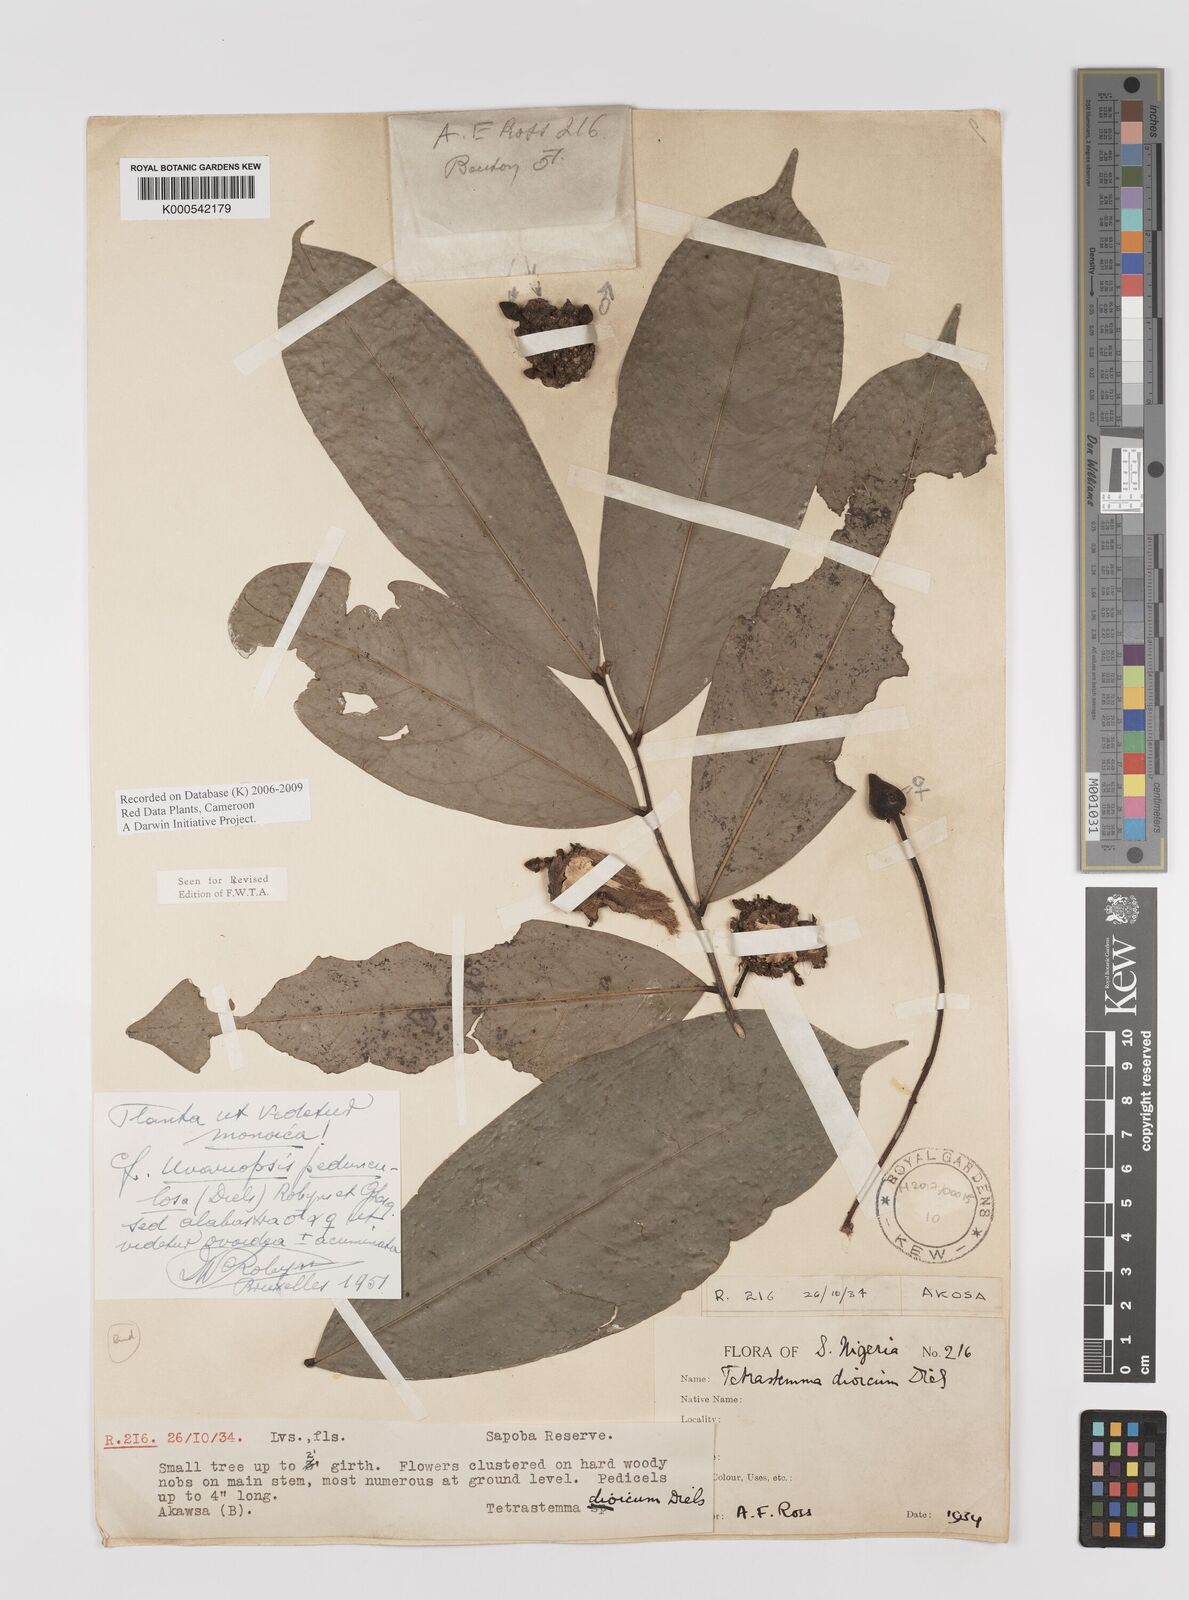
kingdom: Plantae
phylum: Tracheophyta
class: Magnoliopsida
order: Magnoliales
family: Annonaceae
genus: Uvariopsis
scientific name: Uvariopsis dioica
